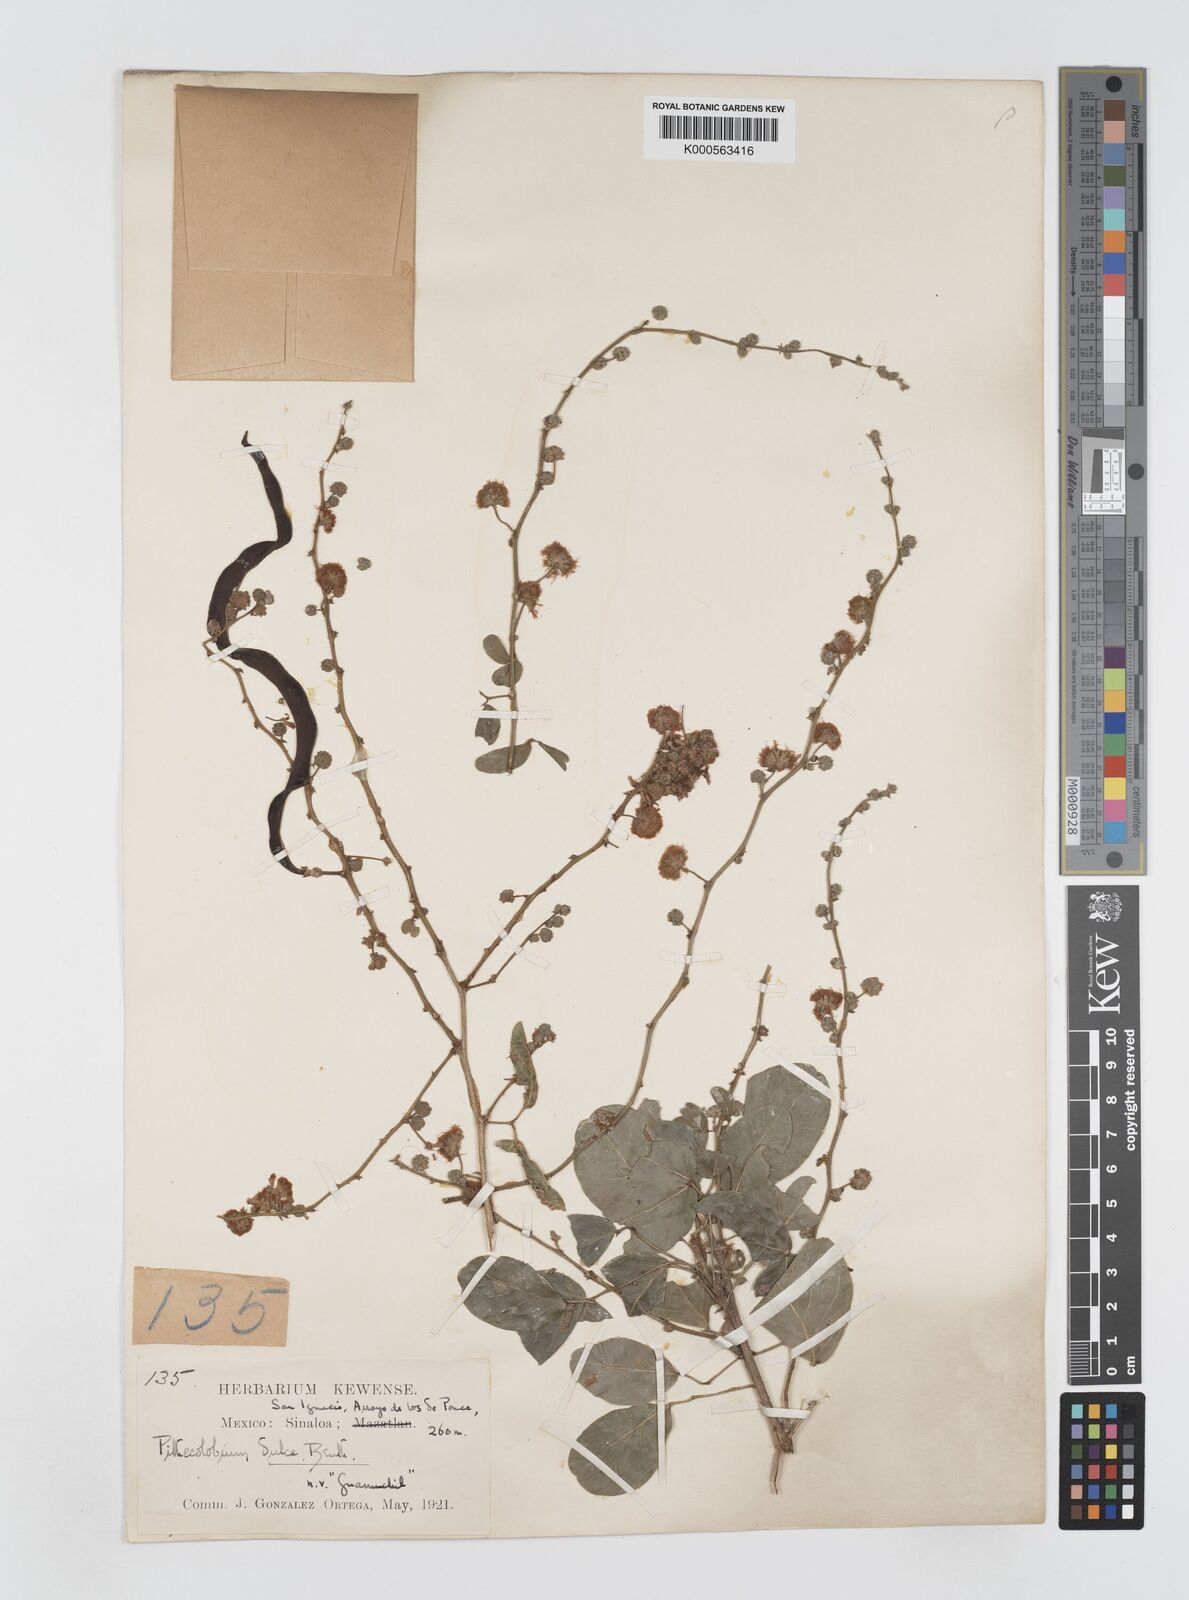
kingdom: Plantae
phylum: Tracheophyta
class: Magnoliopsida
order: Fabales
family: Fabaceae
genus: Pithecellobium
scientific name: Pithecellobium dulce
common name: Monkeypod
